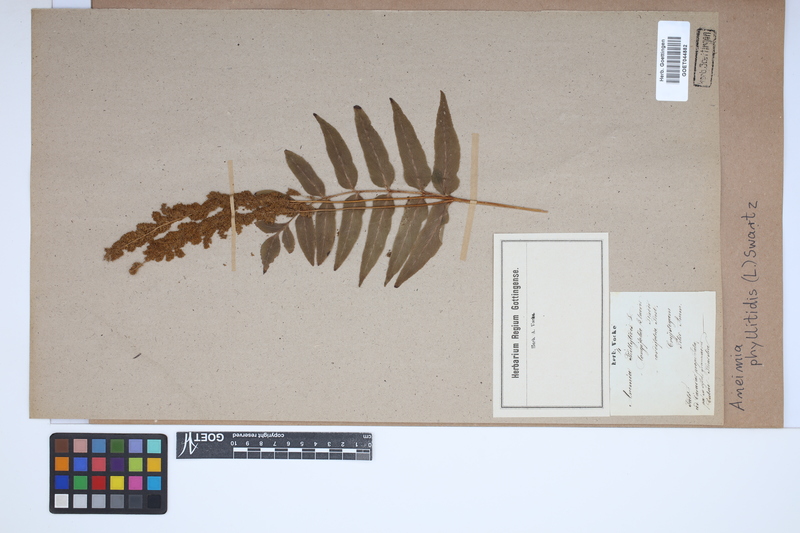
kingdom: Plantae
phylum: Tracheophyta
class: Polypodiopsida
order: Schizaeales
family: Anemiaceae
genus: Anemia
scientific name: Anemia phyllitidis
